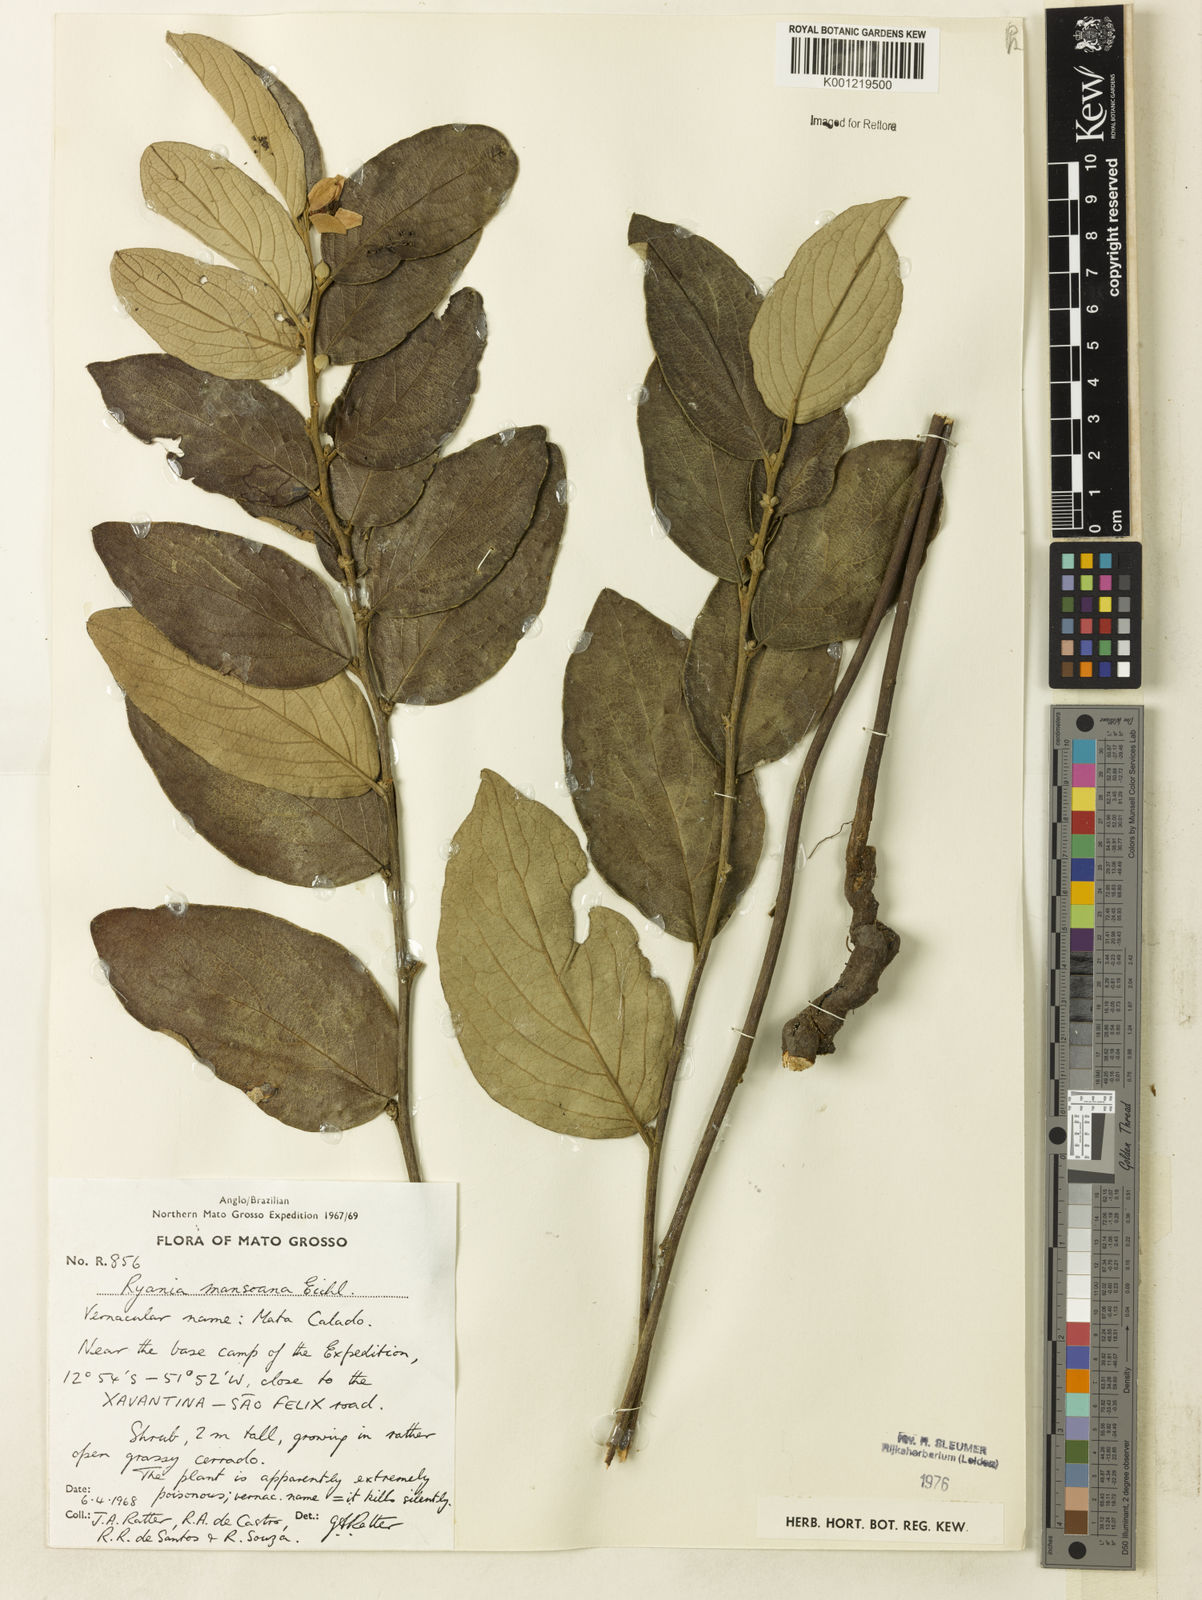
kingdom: Plantae
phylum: Tracheophyta
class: Magnoliopsida
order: Malpighiales
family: Salicaceae
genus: Ryania
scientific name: Ryania mansoana
